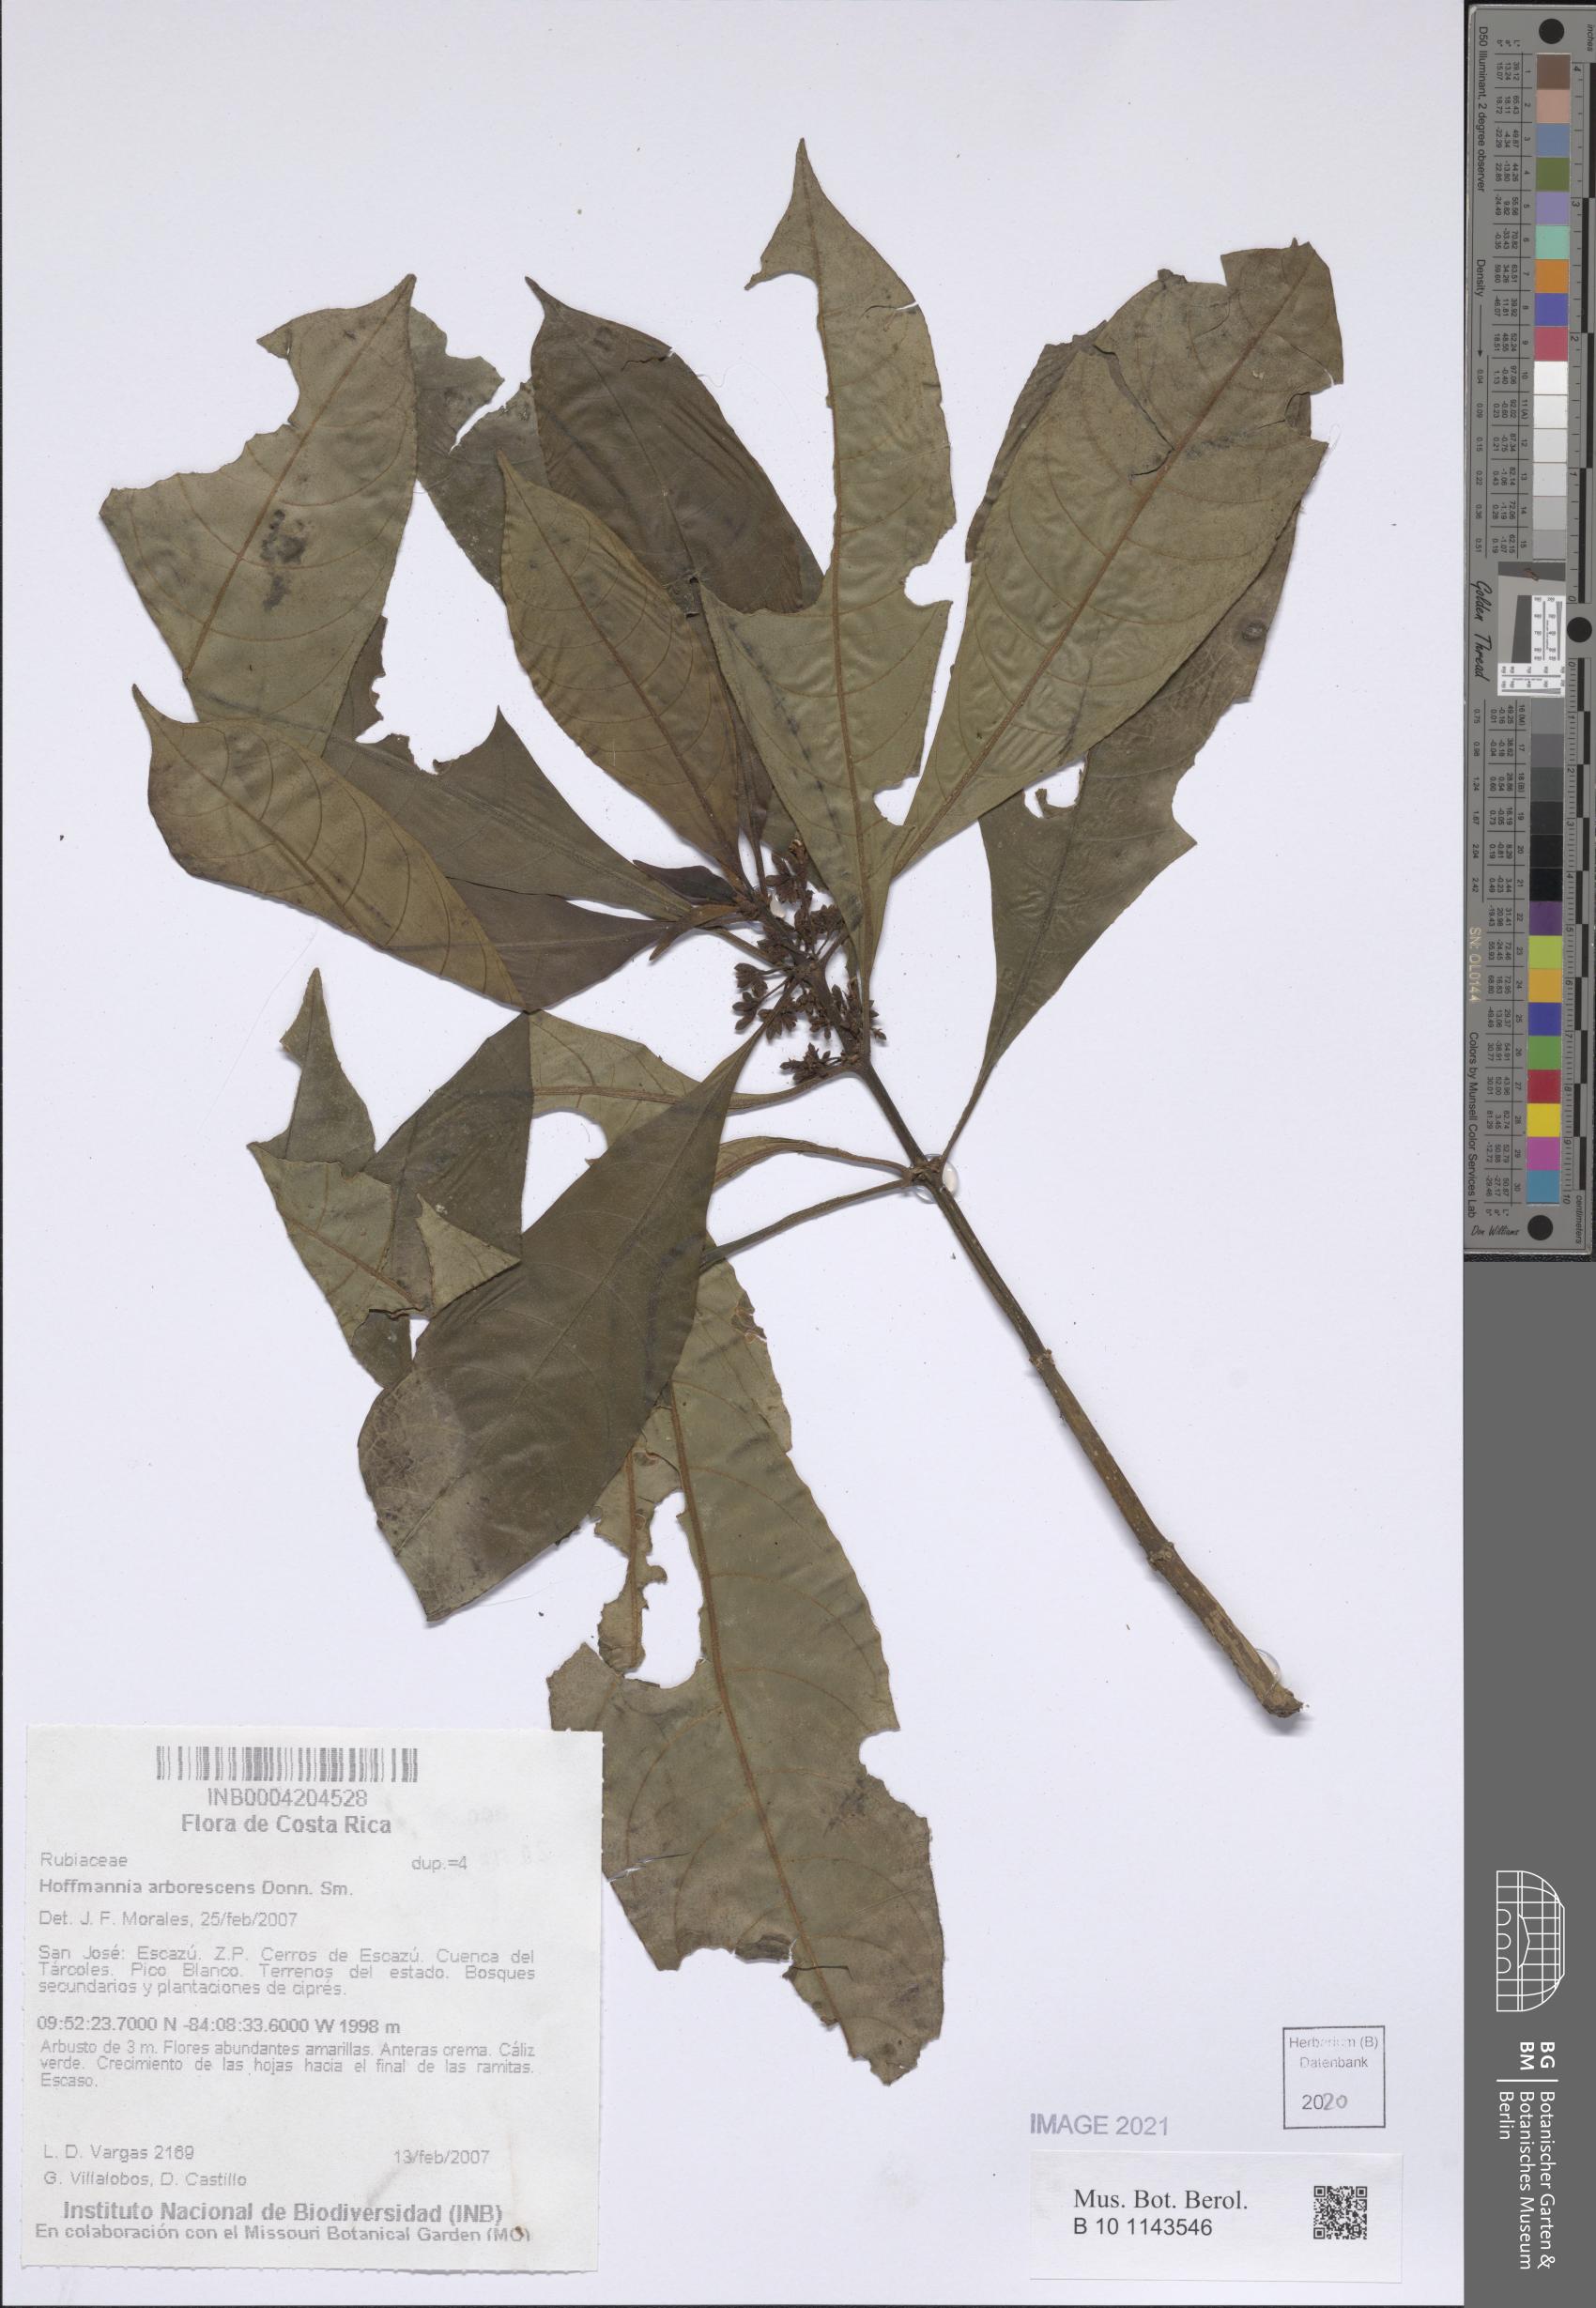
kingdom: Plantae
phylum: Tracheophyta
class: Magnoliopsida
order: Gentianales
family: Rubiaceae
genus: Hoffmannia
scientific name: Hoffmannia arborescens
